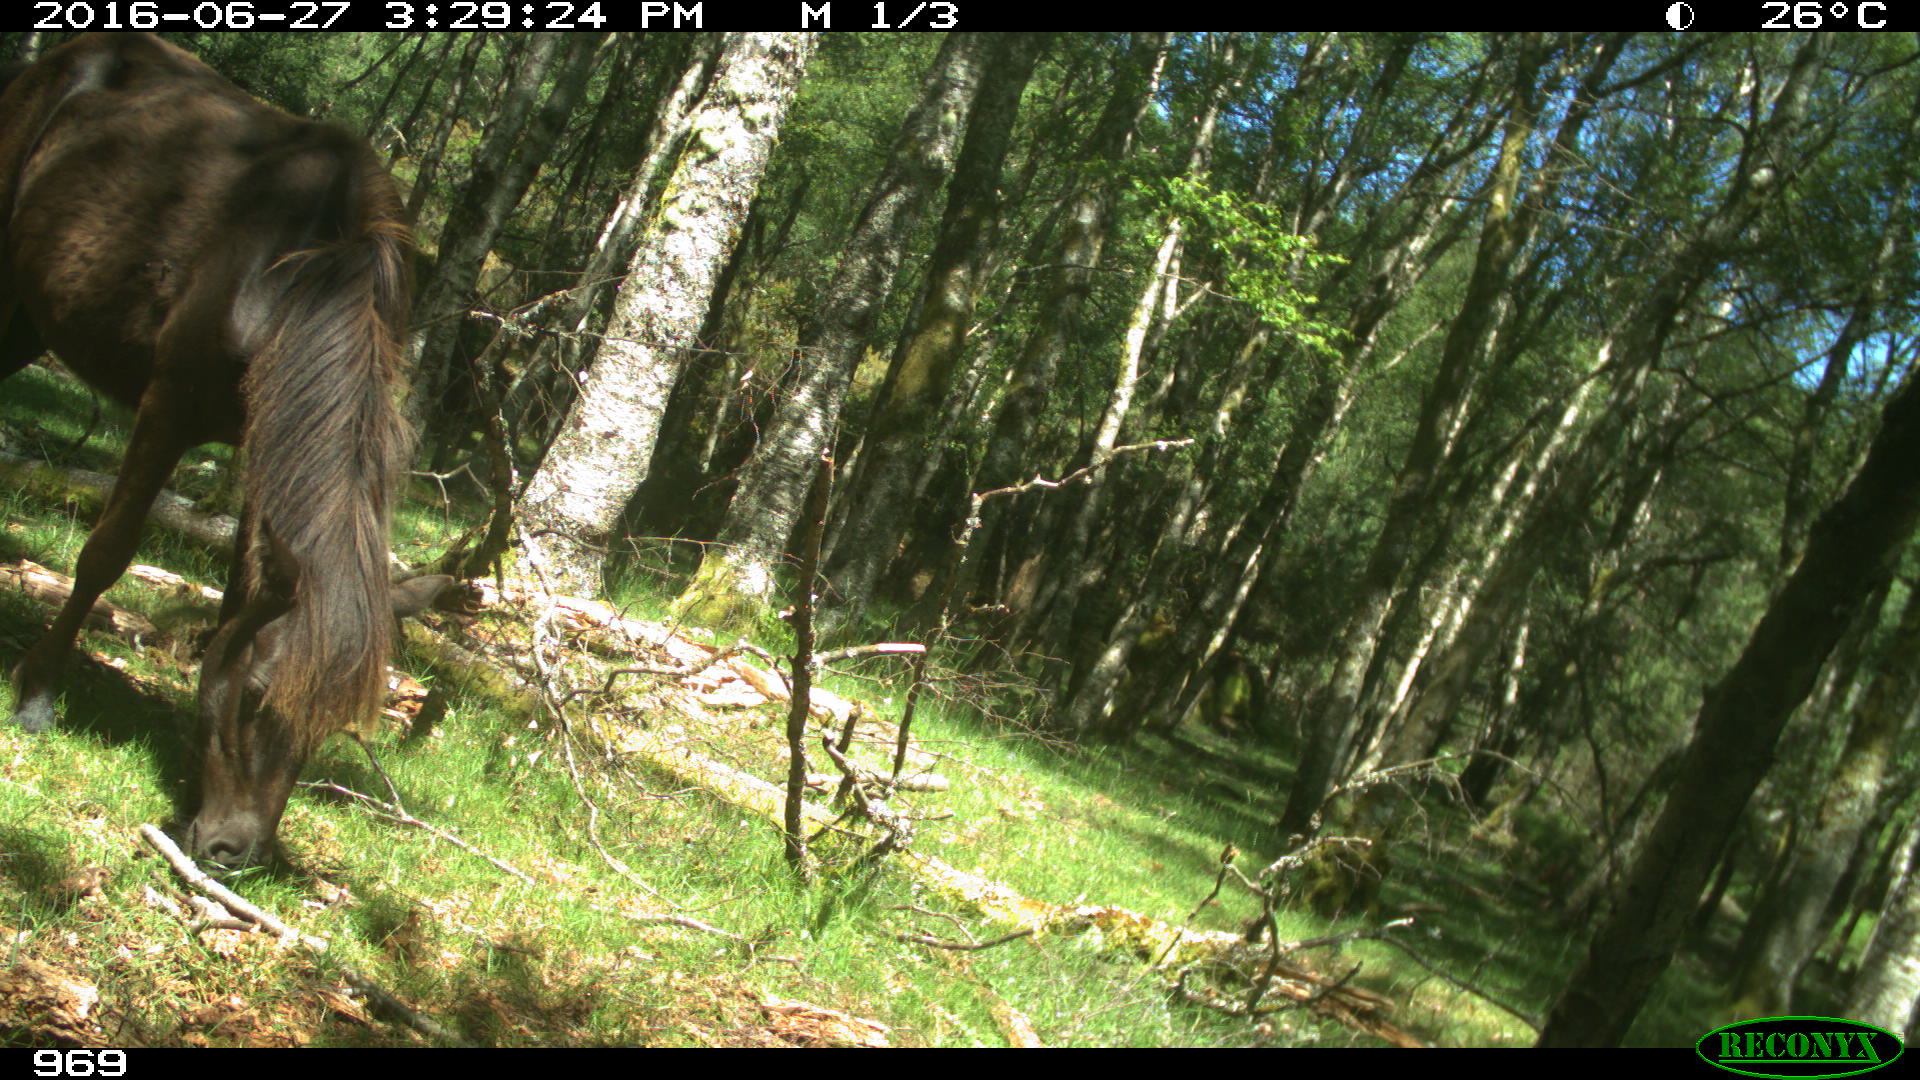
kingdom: Animalia
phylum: Chordata
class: Mammalia
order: Perissodactyla
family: Equidae
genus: Equus
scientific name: Equus caballus
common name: Horse
